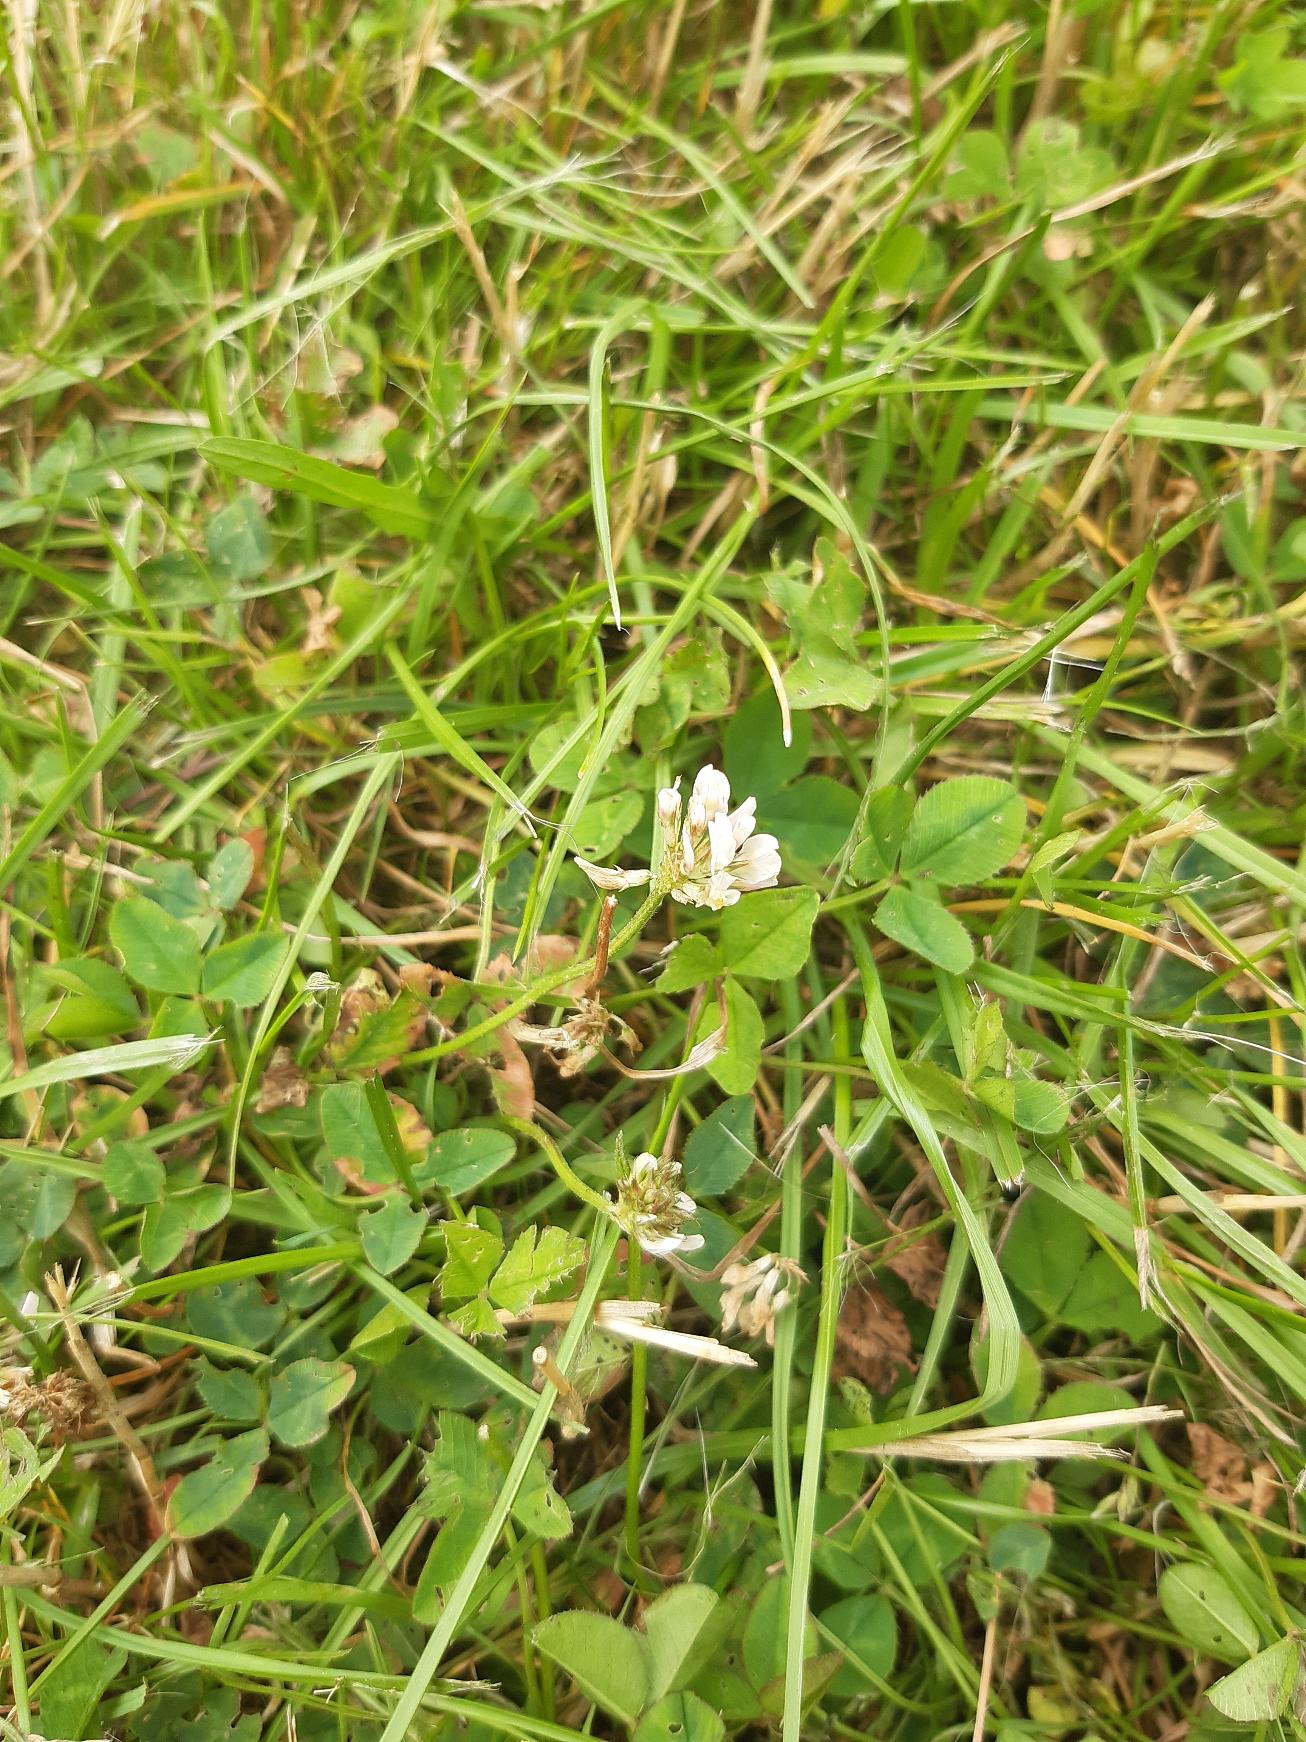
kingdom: Plantae
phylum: Tracheophyta
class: Magnoliopsida
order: Fabales
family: Fabaceae
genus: Trifolium
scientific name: Trifolium repens
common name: Hvid-kløver
